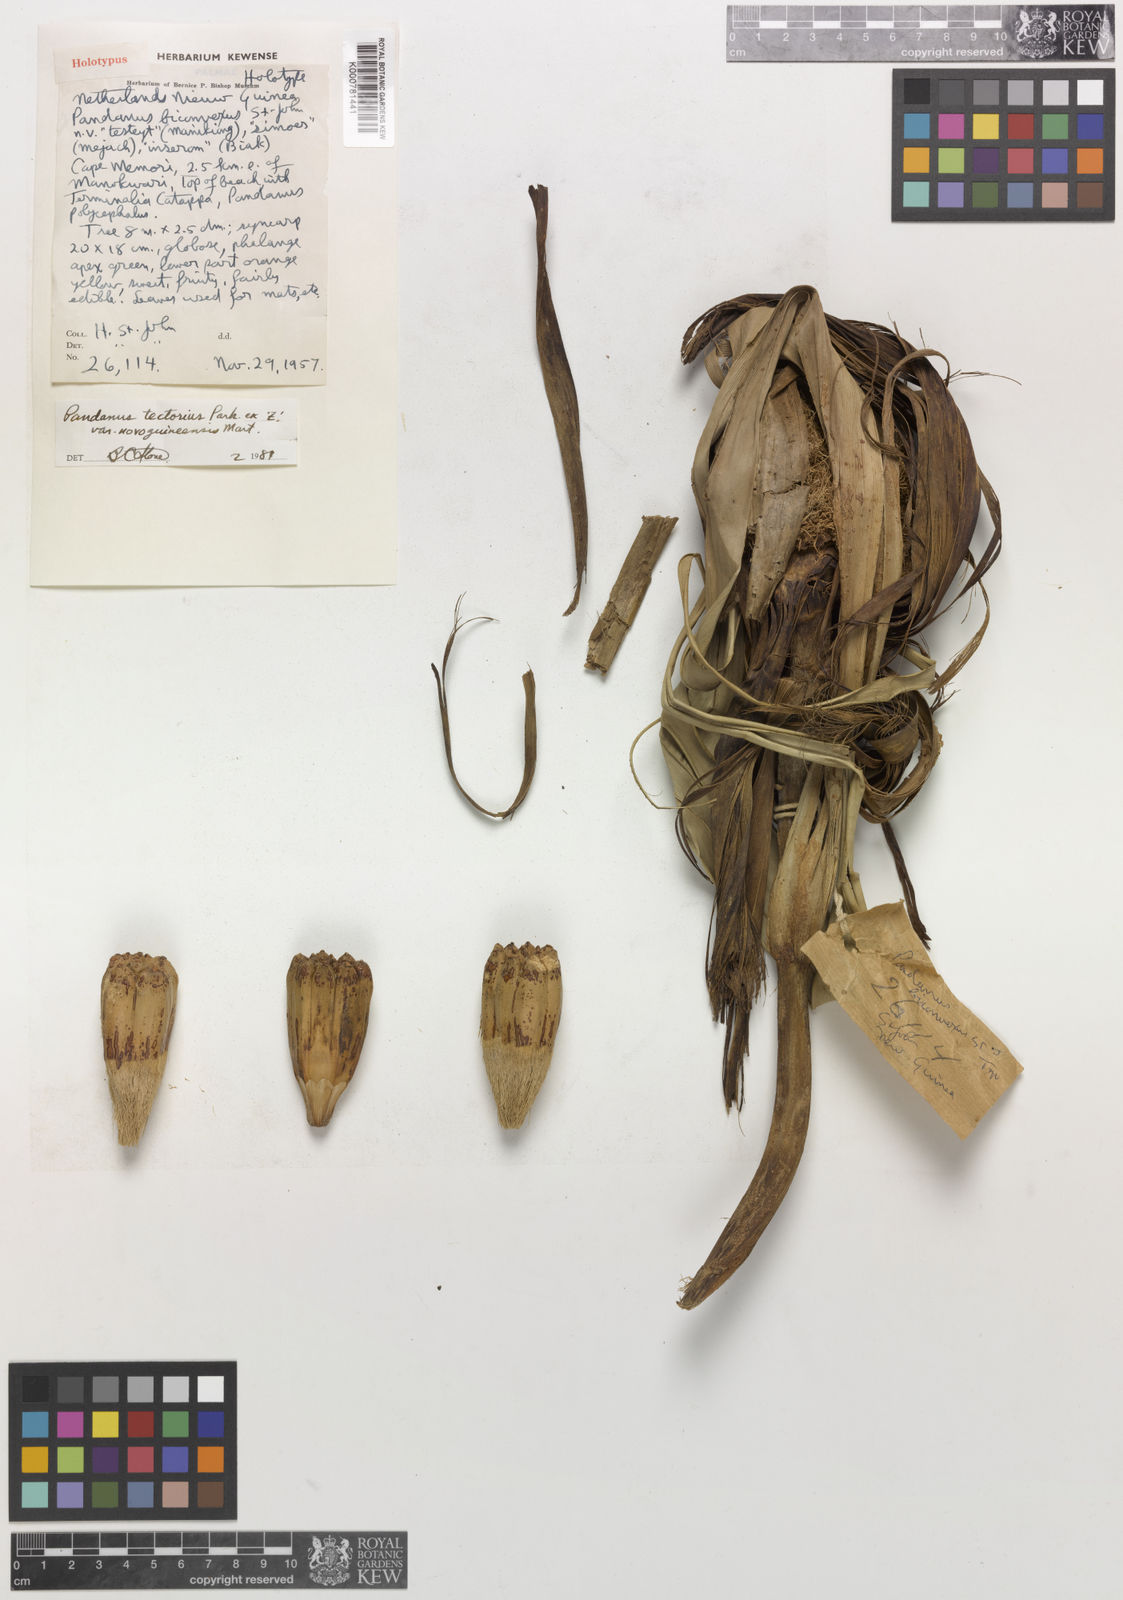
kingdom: Plantae
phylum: Tracheophyta
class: Liliopsida
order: Pandanales
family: Pandanaceae
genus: Pandanus
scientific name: Pandanus
